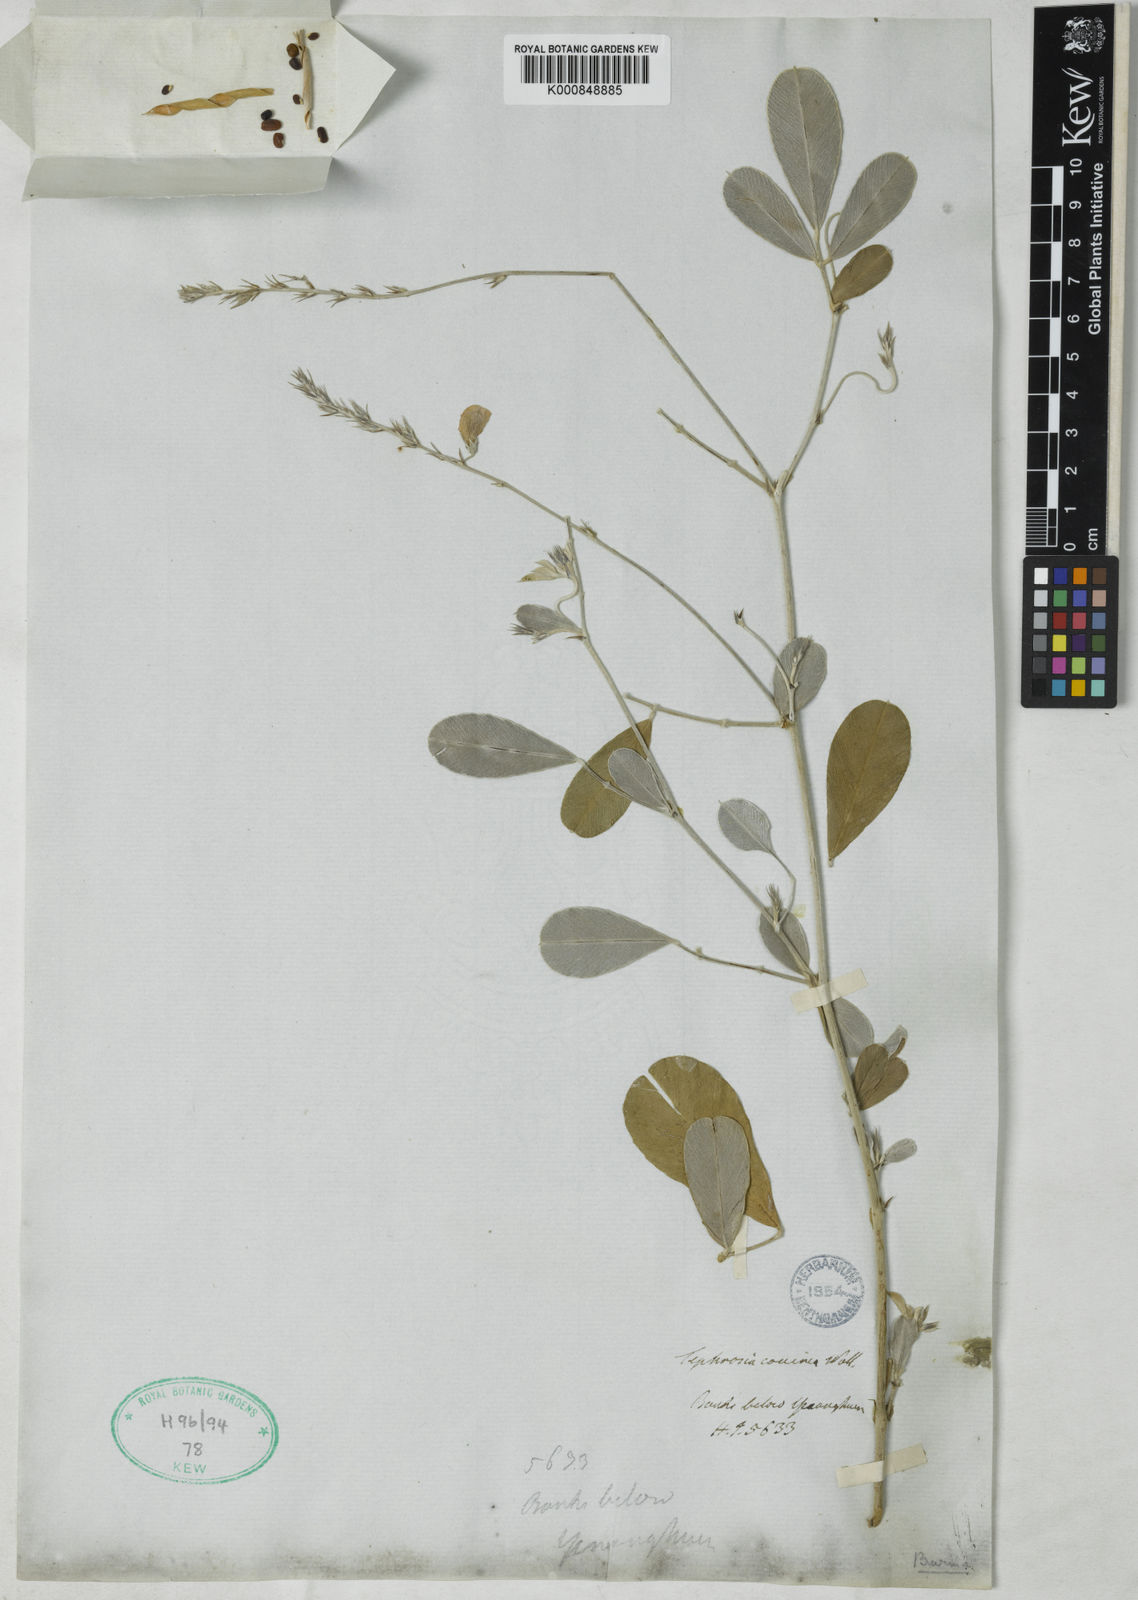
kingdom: Plantae
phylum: Tracheophyta
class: Magnoliopsida
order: Fabales
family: Fabaceae
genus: Tephrosia
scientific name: Tephrosia coccinea
